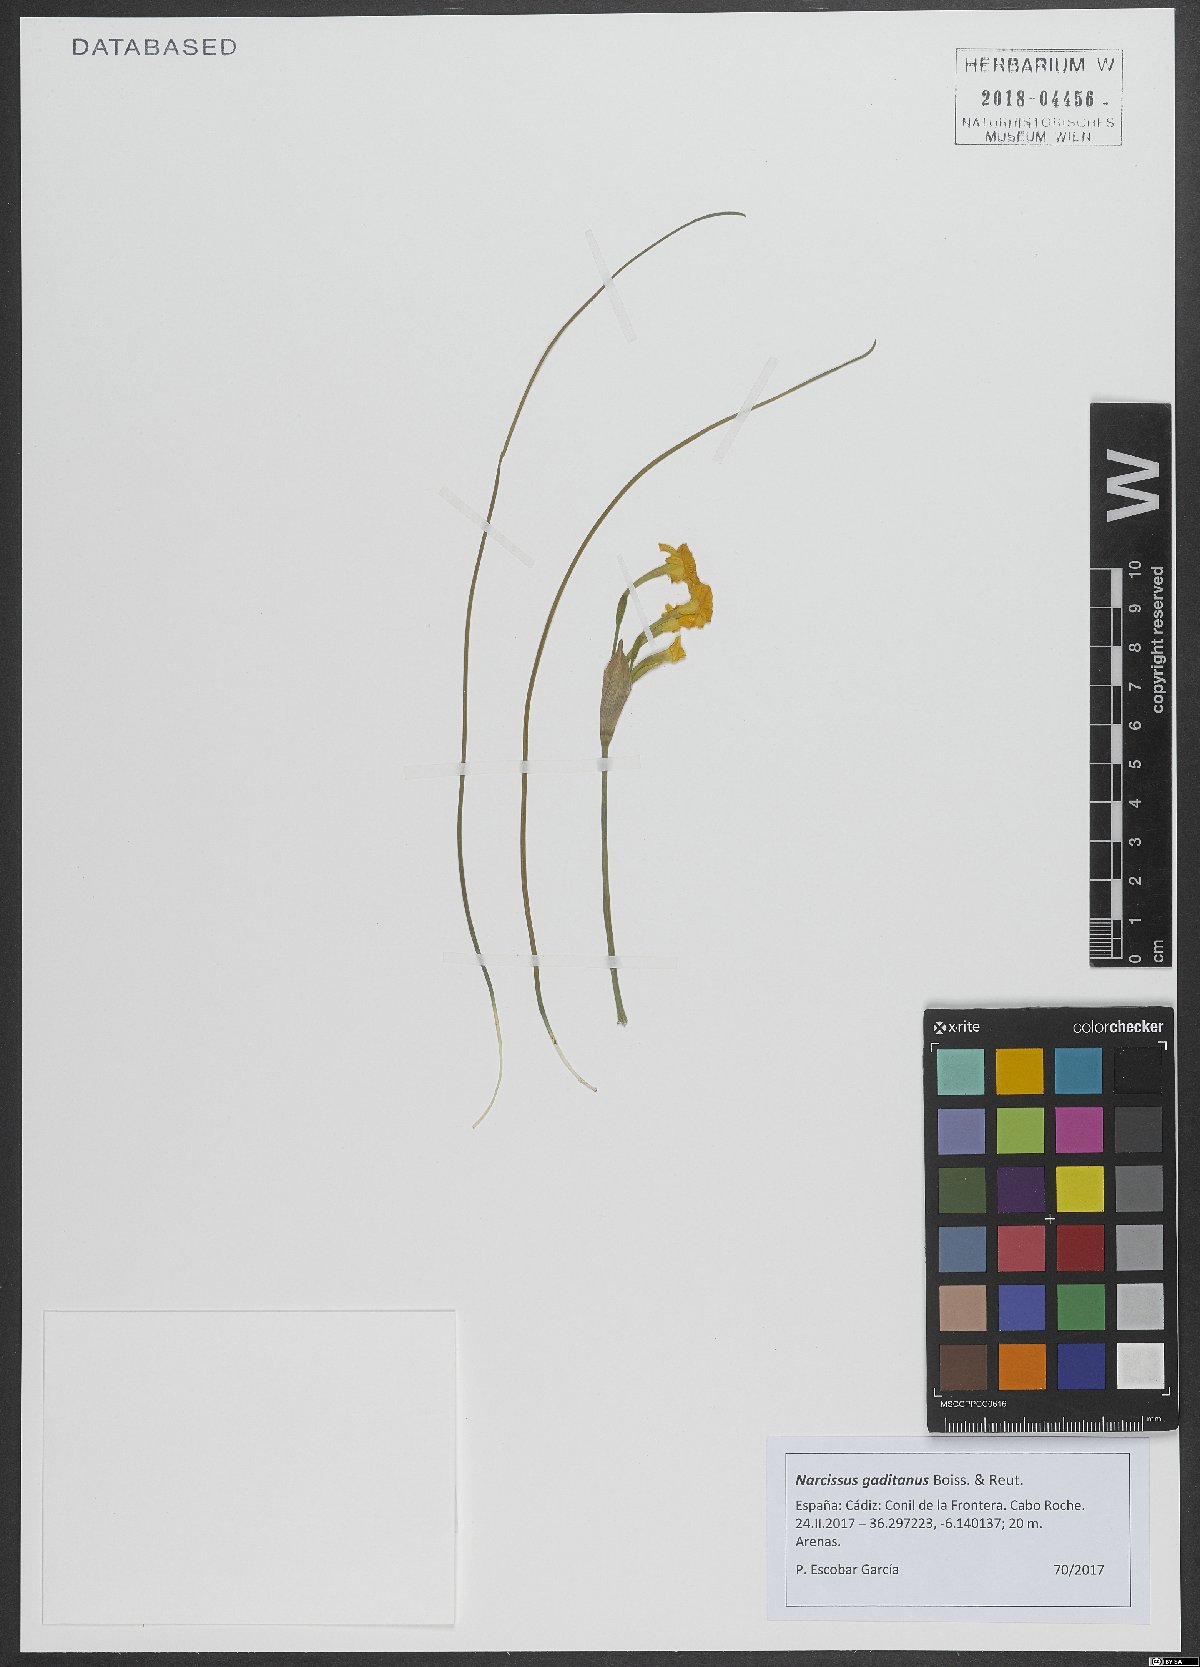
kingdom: Plantae
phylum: Tracheophyta
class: Liliopsida
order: Asparagales
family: Amaryllidaceae
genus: Narcissus
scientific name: Narcissus gaditanus
